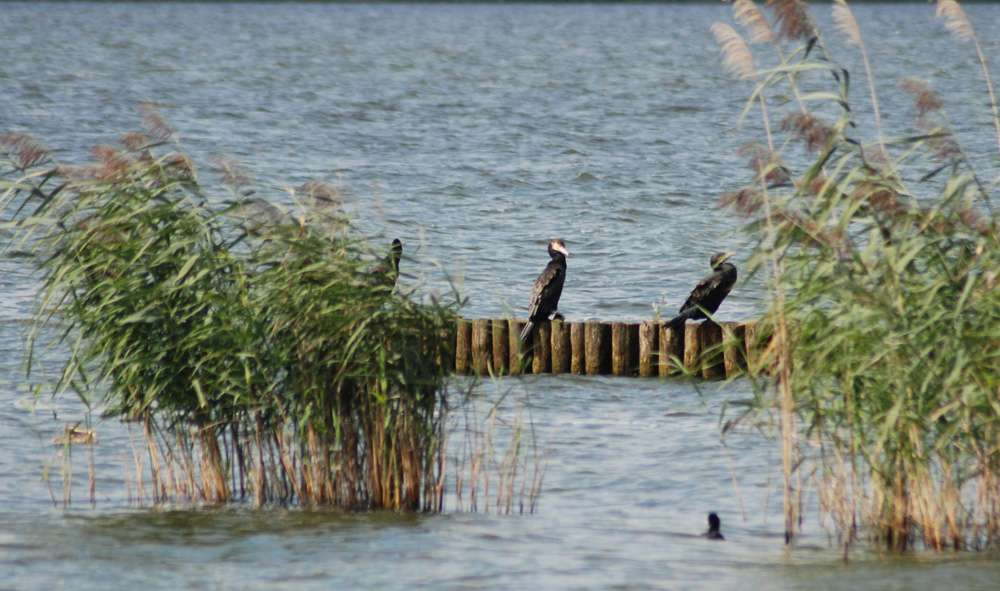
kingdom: Animalia
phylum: Chordata
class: Aves
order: Suliformes
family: Phalacrocoracidae
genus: Phalacrocorax
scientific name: Phalacrocorax carbo
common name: Great cormorant
